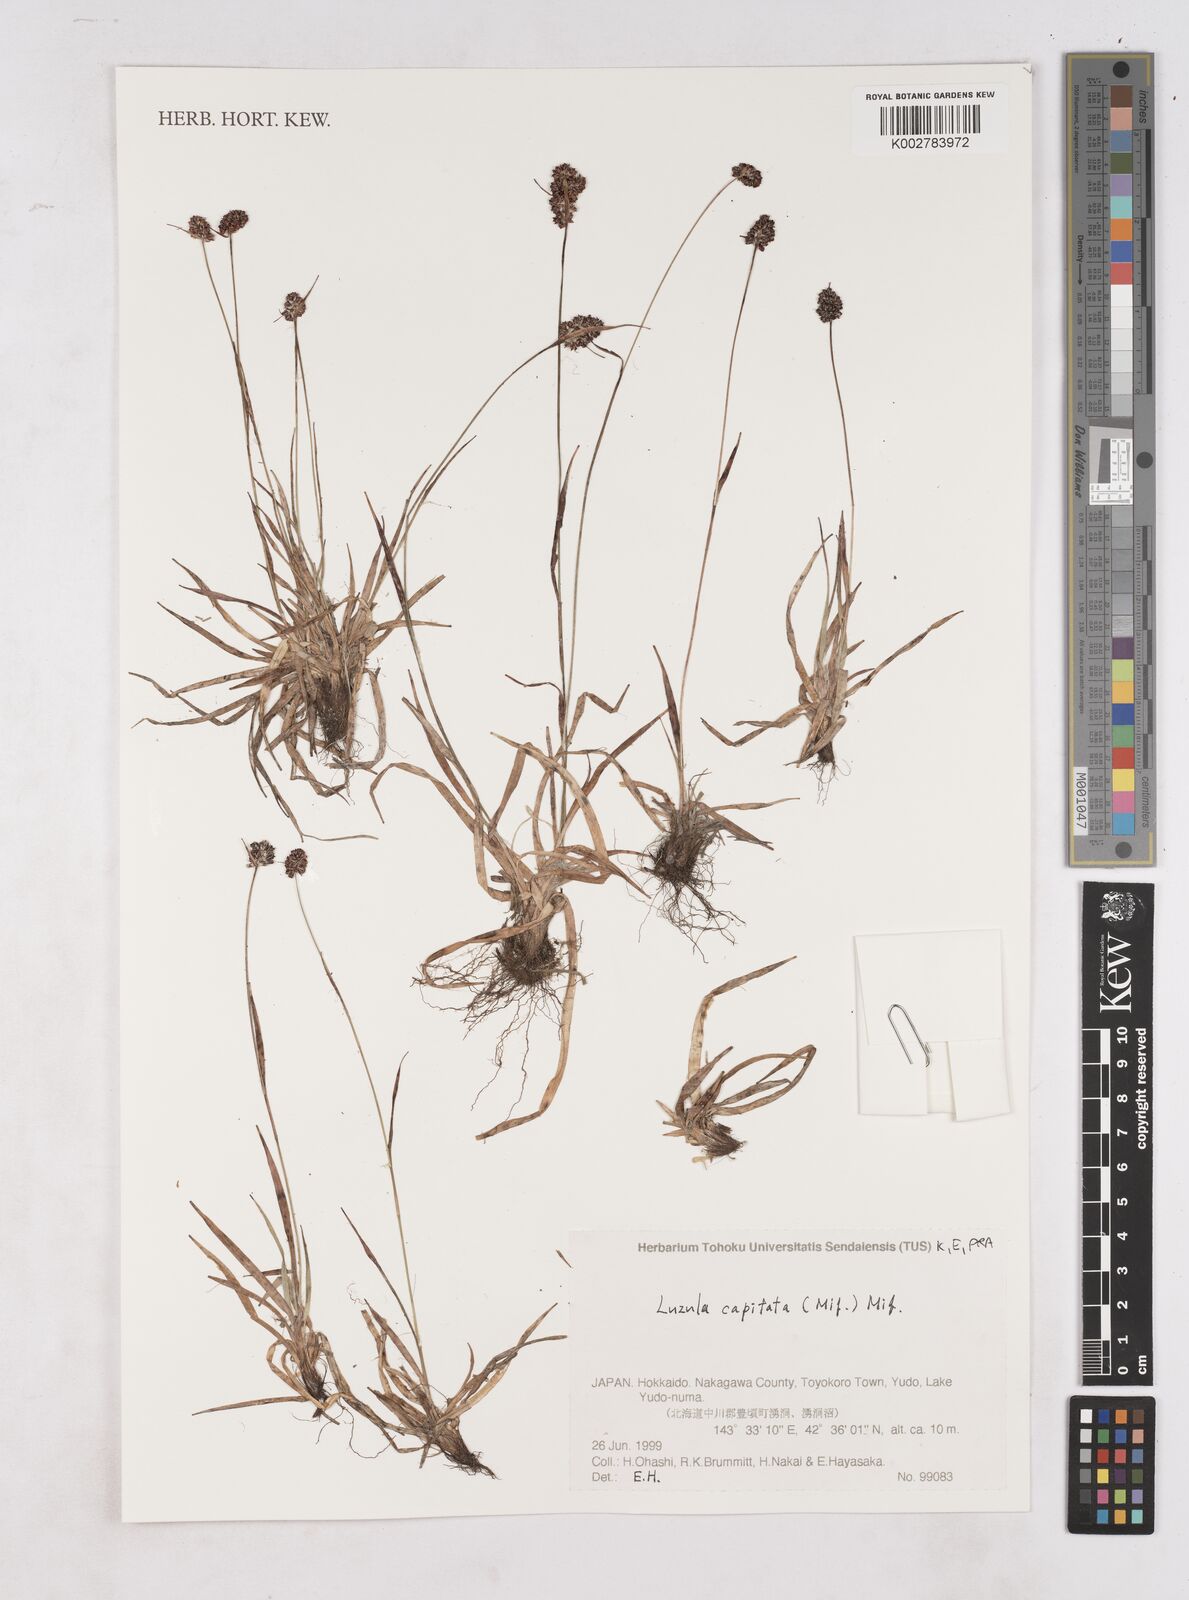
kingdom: Plantae
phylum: Tracheophyta
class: Liliopsida
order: Poales
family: Juncaceae
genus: Luzula
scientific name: Luzula capitata
